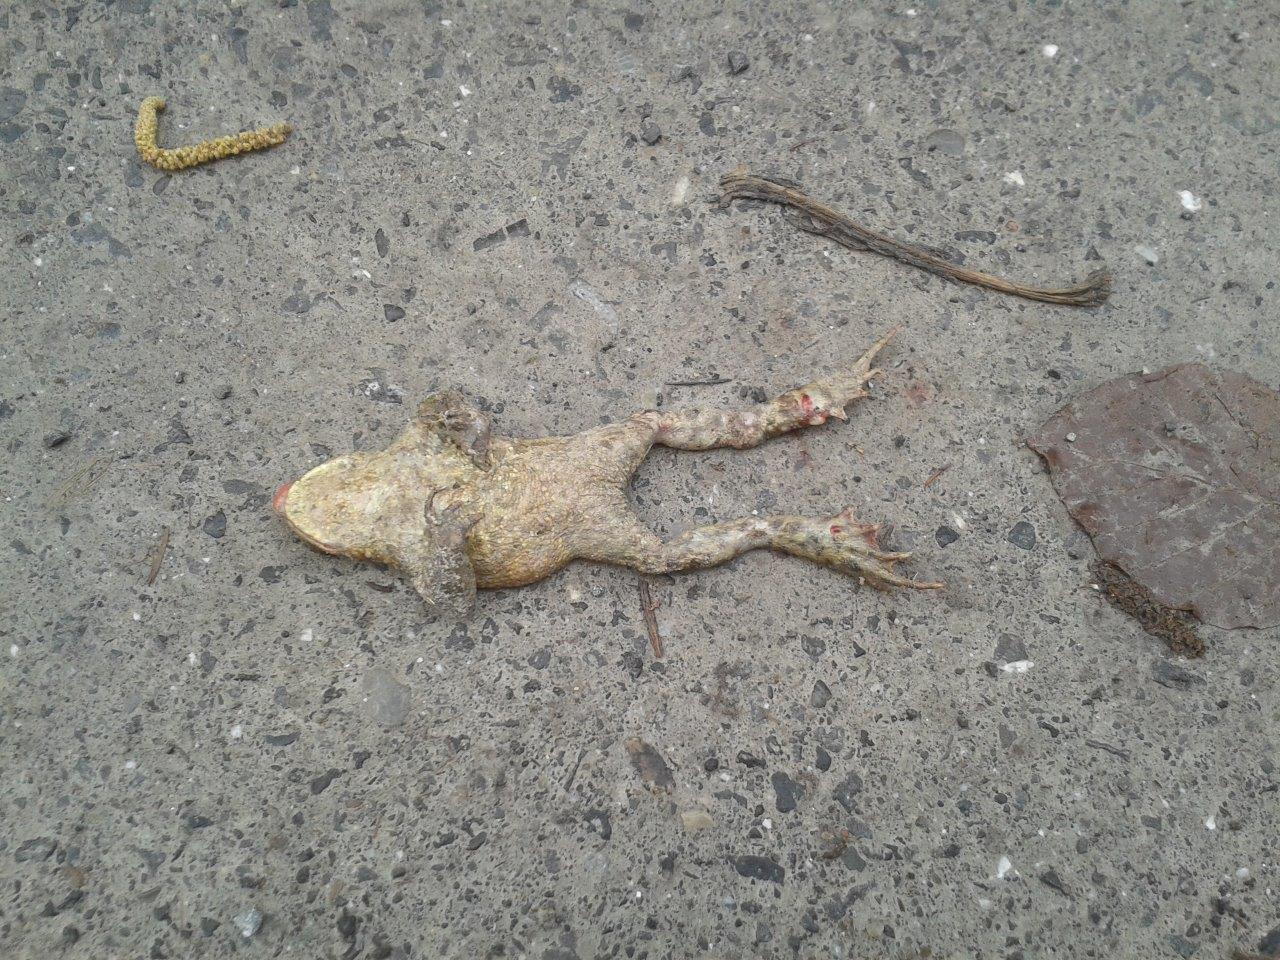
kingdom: Animalia
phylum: Chordata
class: Amphibia
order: Anura
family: Bufonidae
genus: Bufo
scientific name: Bufo bufo
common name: Common toad
